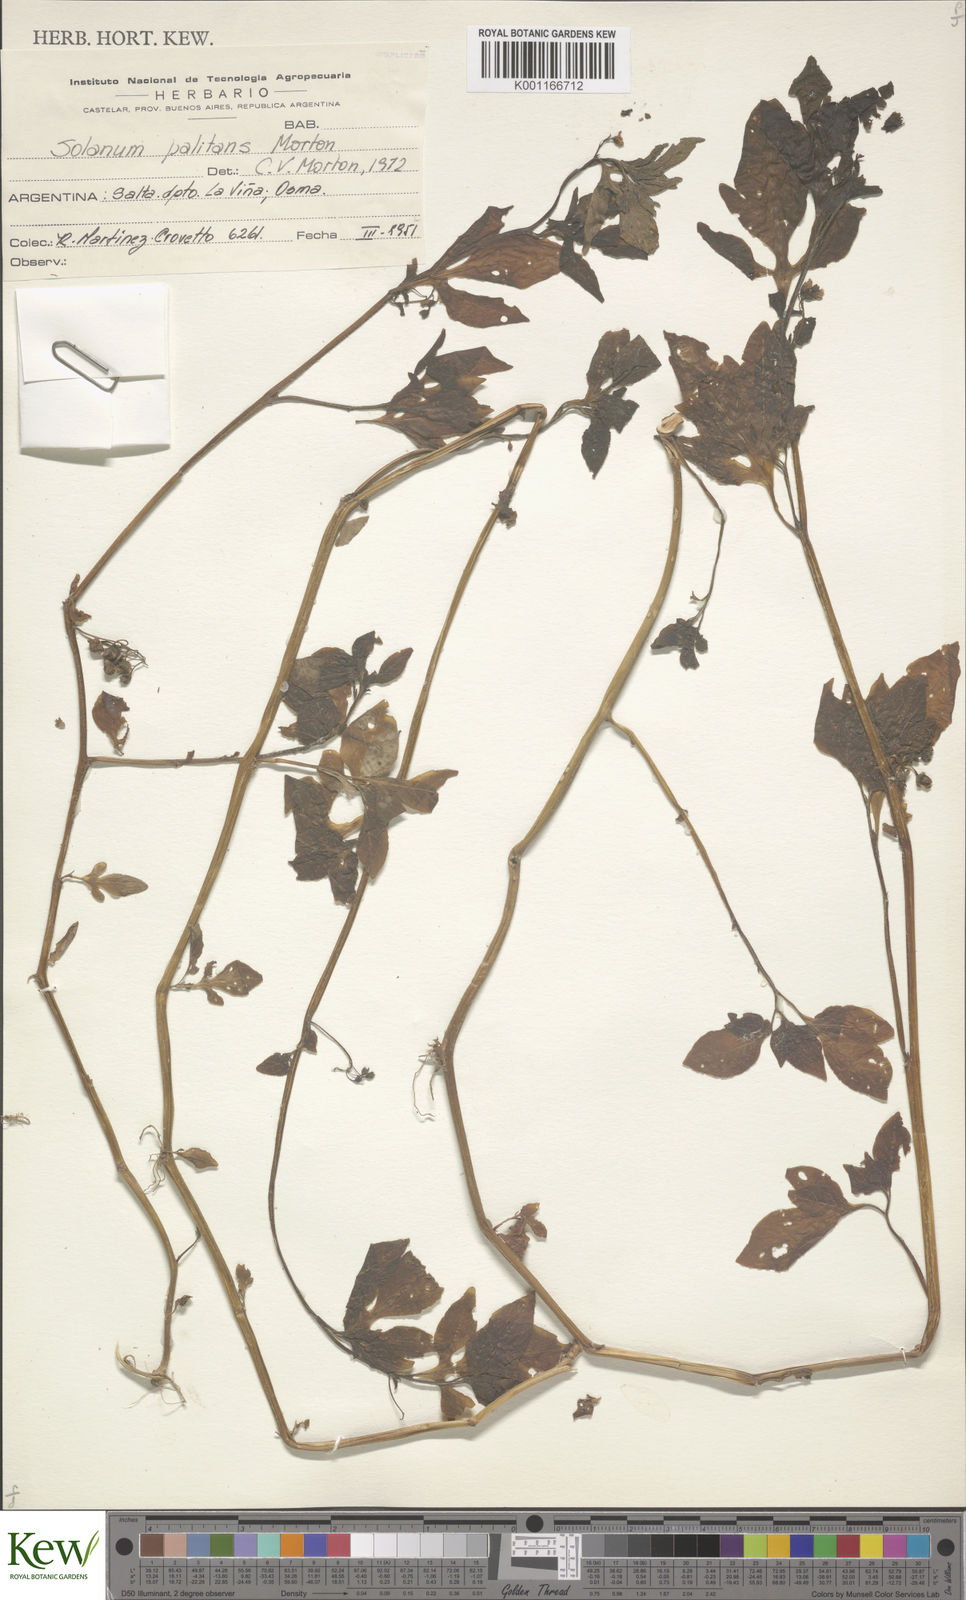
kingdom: Plantae
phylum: Tracheophyta
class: Magnoliopsida
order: Solanales
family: Solanaceae
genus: Solanum
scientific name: Solanum palitans
